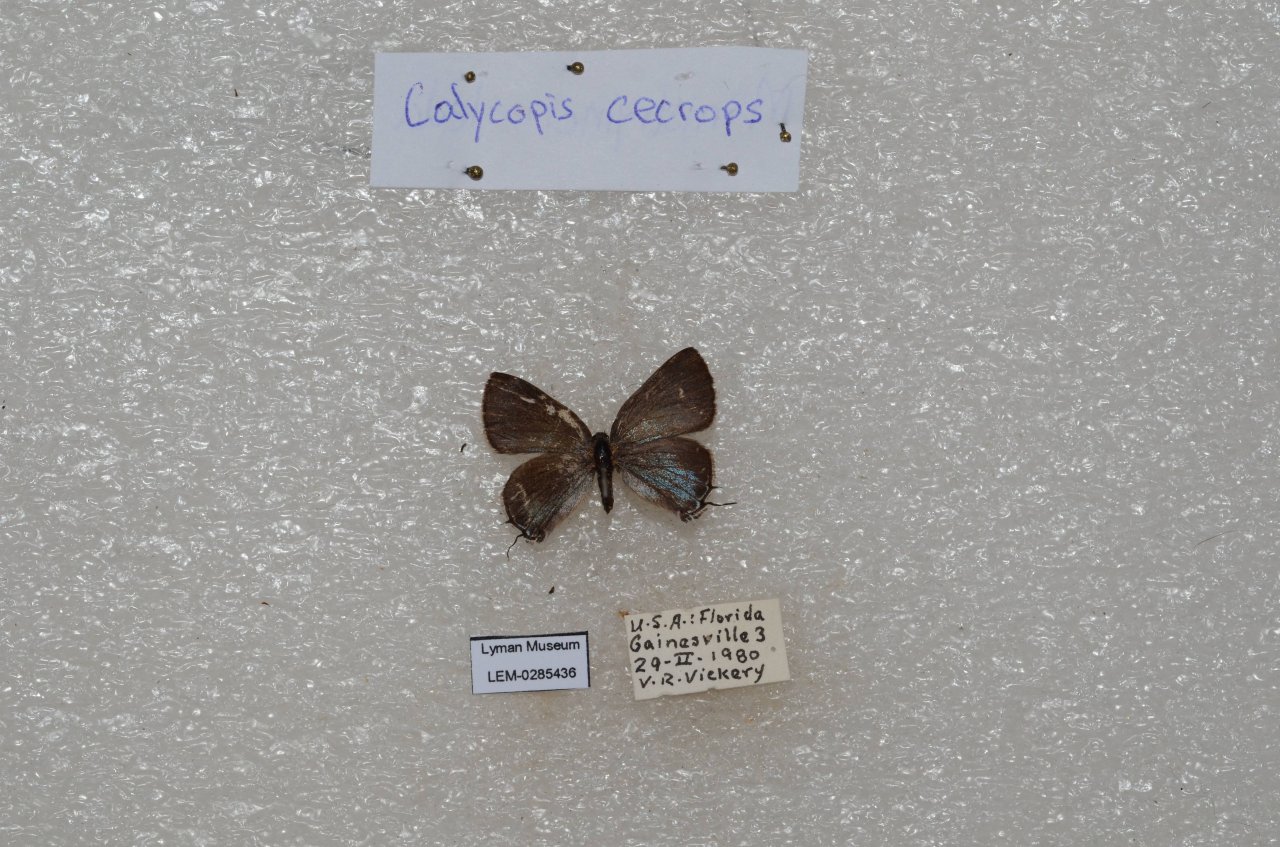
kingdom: Animalia
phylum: Arthropoda
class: Insecta
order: Lepidoptera
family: Lycaenidae
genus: Calycopis
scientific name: Calycopis cecrops
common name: Red-banded Hairstreak
